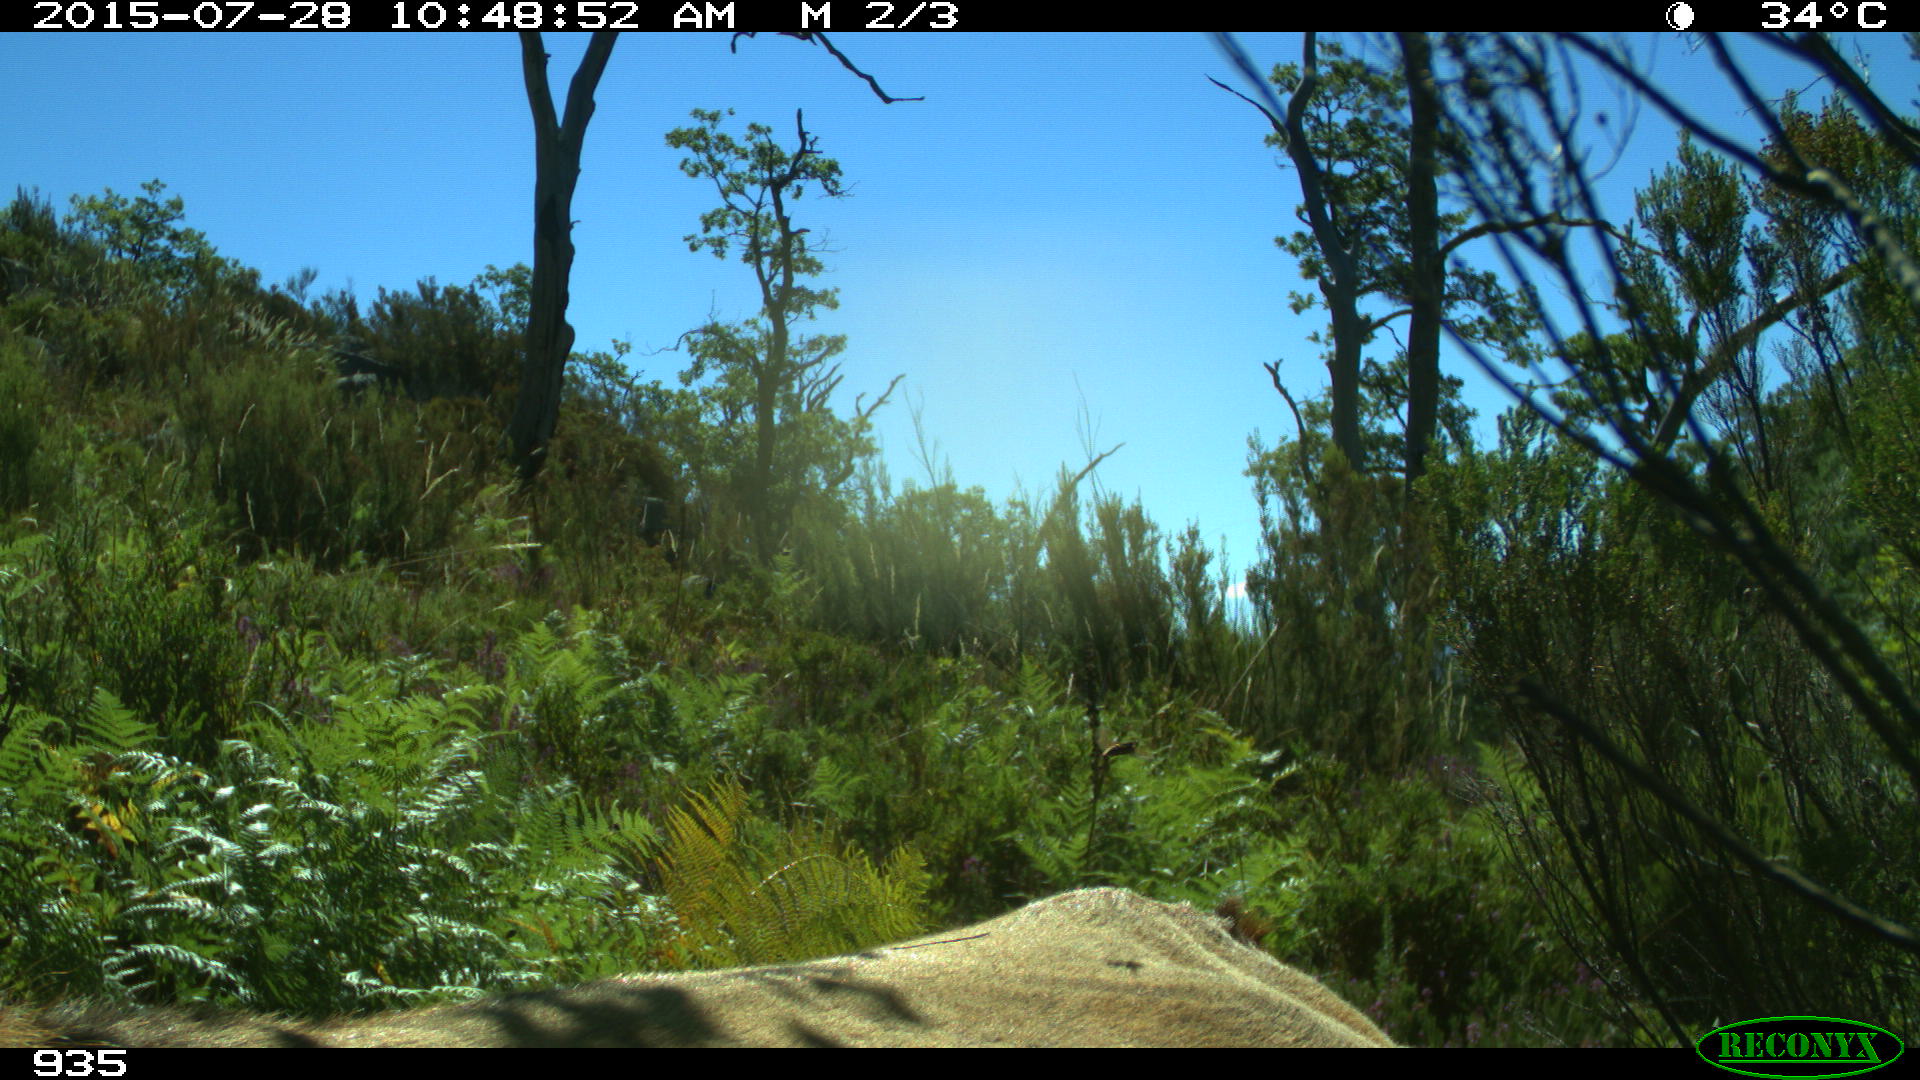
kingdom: Animalia
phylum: Chordata
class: Mammalia
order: Artiodactyla
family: Bovidae
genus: Bos
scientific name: Bos taurus
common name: Domesticated cattle
